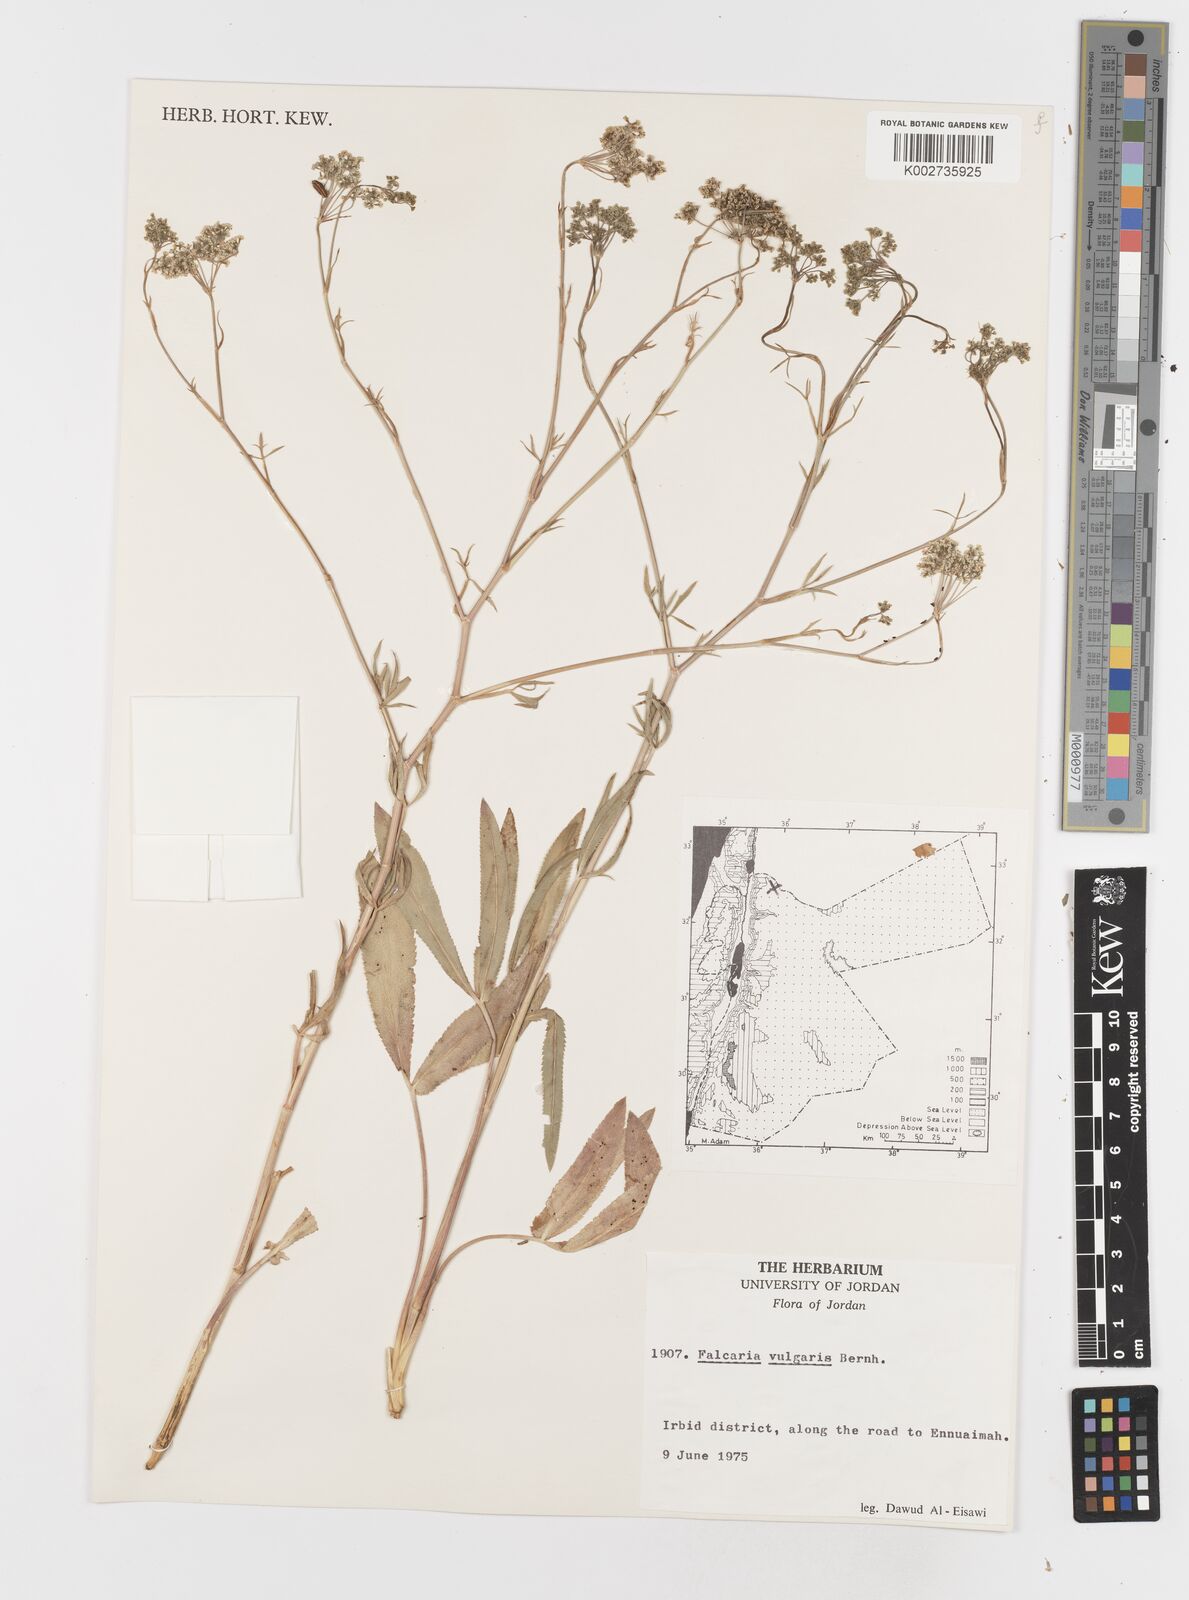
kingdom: Plantae
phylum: Tracheophyta
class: Magnoliopsida
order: Apiales
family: Apiaceae
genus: Falcaria
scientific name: Falcaria vulgaris
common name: Longleaf
